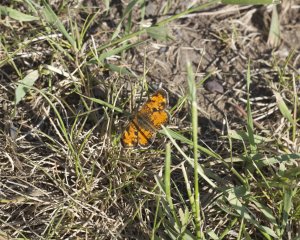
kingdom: Animalia
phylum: Arthropoda
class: Insecta
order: Lepidoptera
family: Nymphalidae
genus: Phyciodes
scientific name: Phyciodes tharos
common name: Northern Crescent
